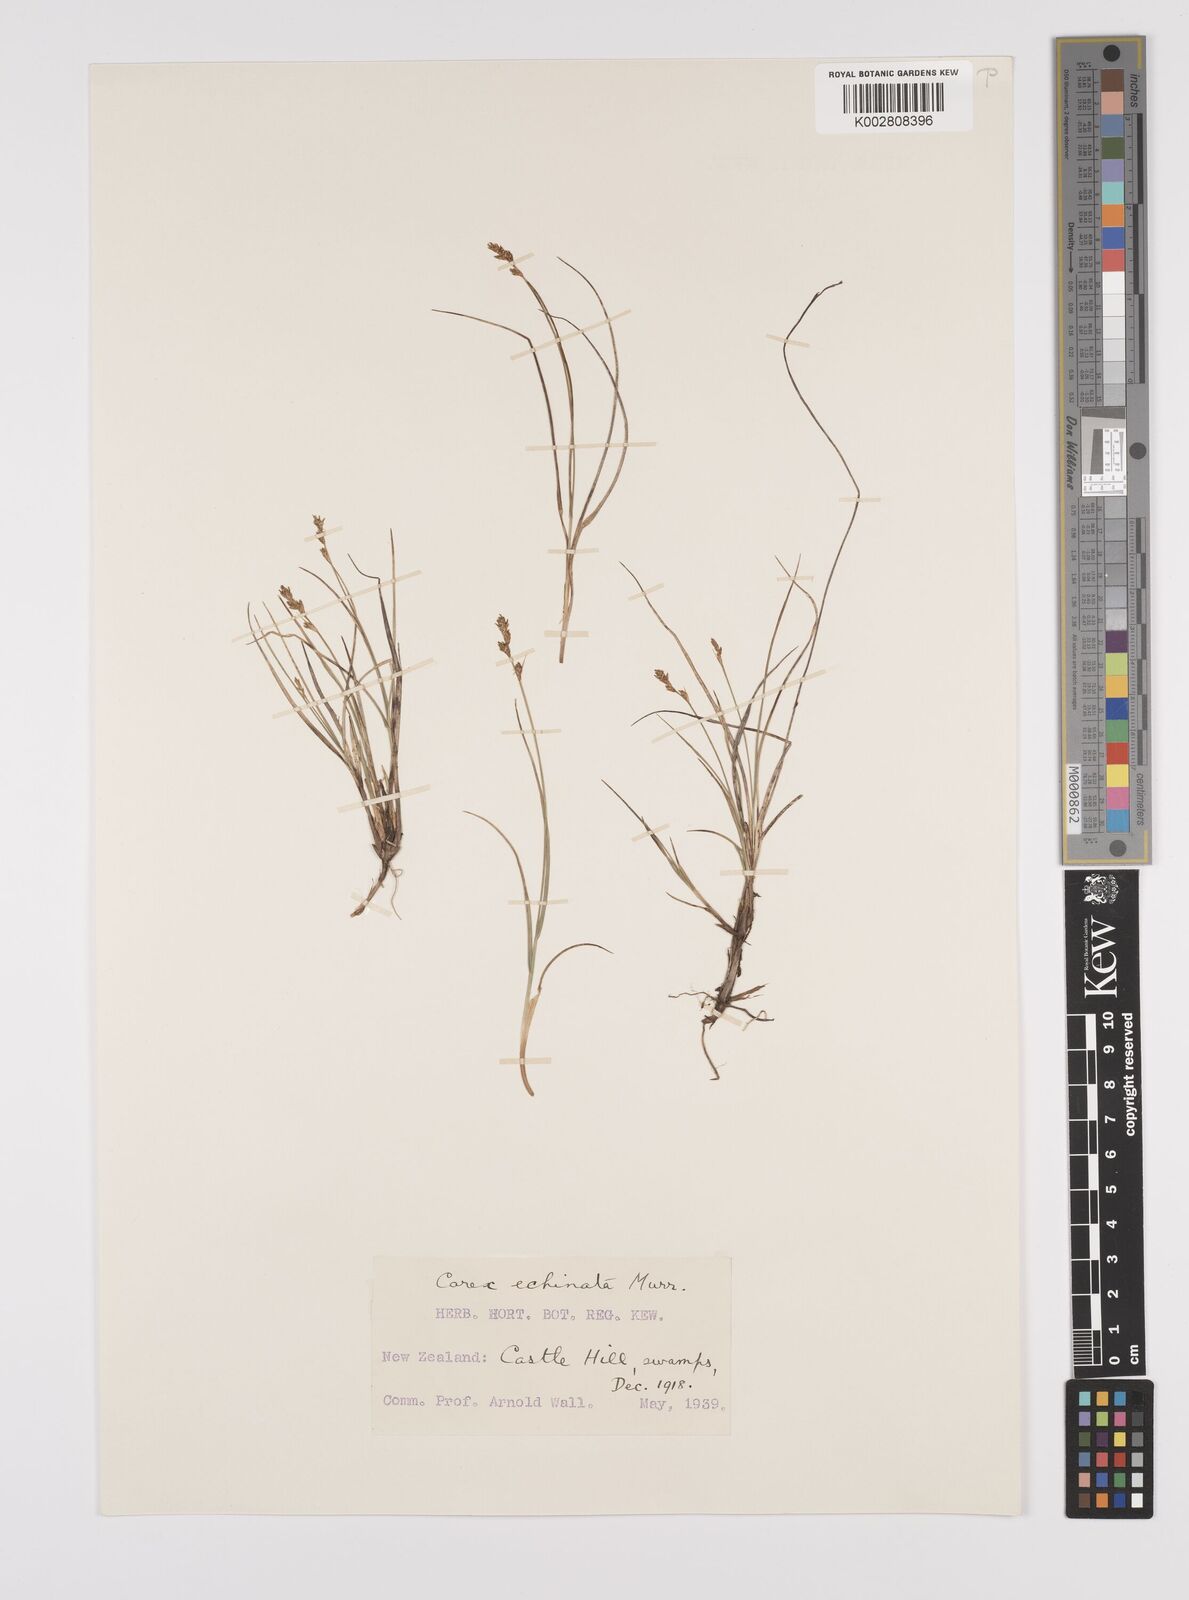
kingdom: Plantae
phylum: Tracheophyta
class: Liliopsida
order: Poales
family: Cyperaceae
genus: Carex
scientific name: Carex echinata
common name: Star sedge
